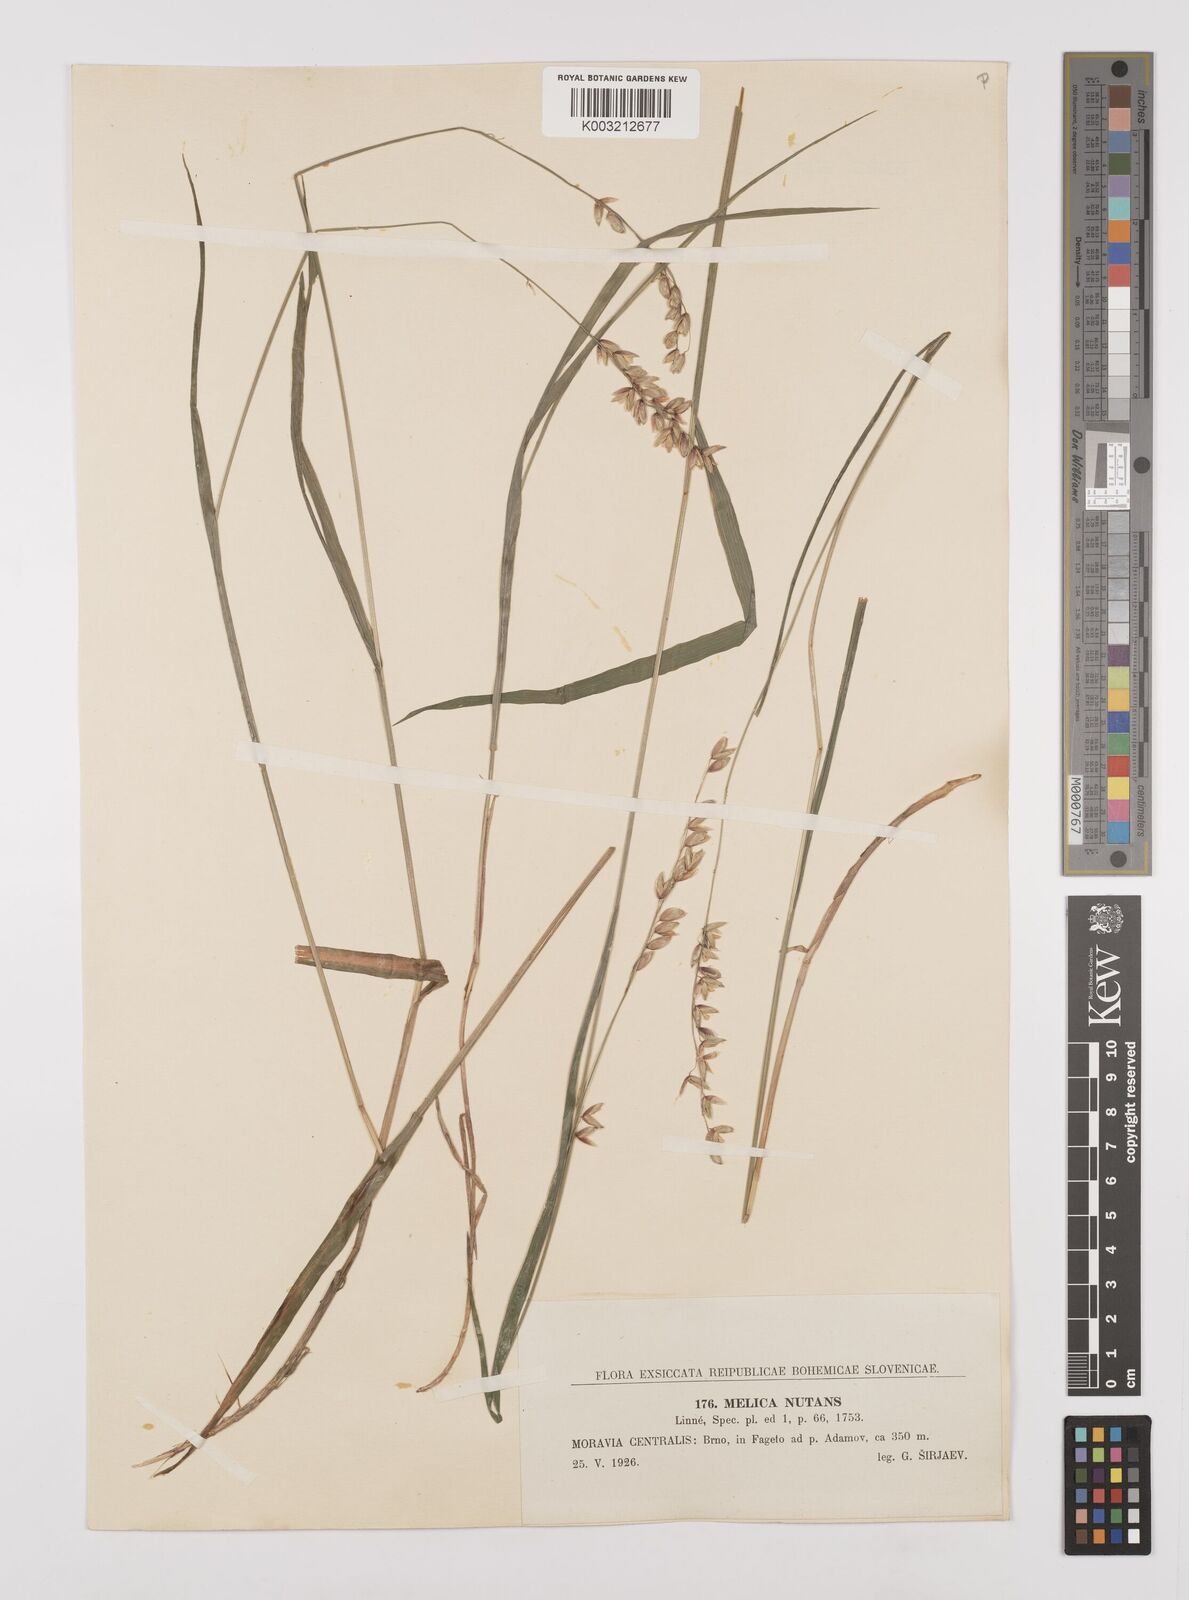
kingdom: Plantae
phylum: Tracheophyta
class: Liliopsida
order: Poales
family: Poaceae
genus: Melica
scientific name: Melica nutans
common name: Mountain melick
